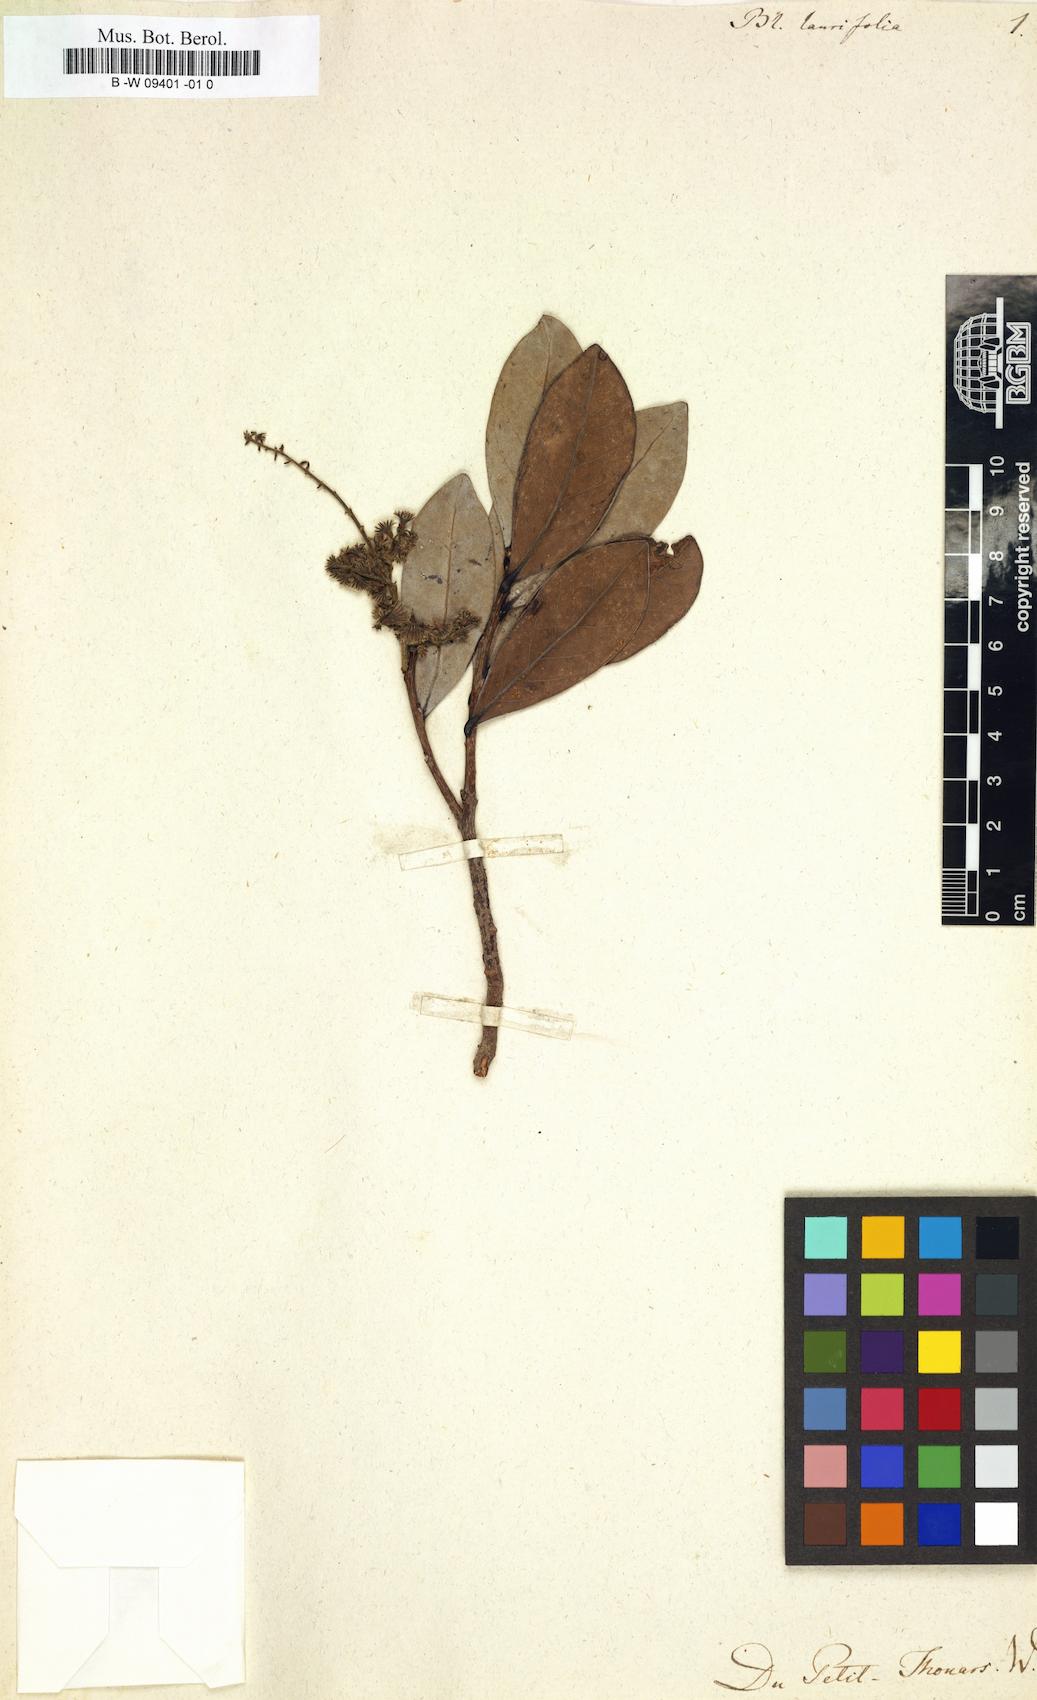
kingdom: Plantae
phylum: Tracheophyta
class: Magnoliopsida
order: Malpighiales
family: Flacourtiaceae
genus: Blackwellia
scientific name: Blackwellia
